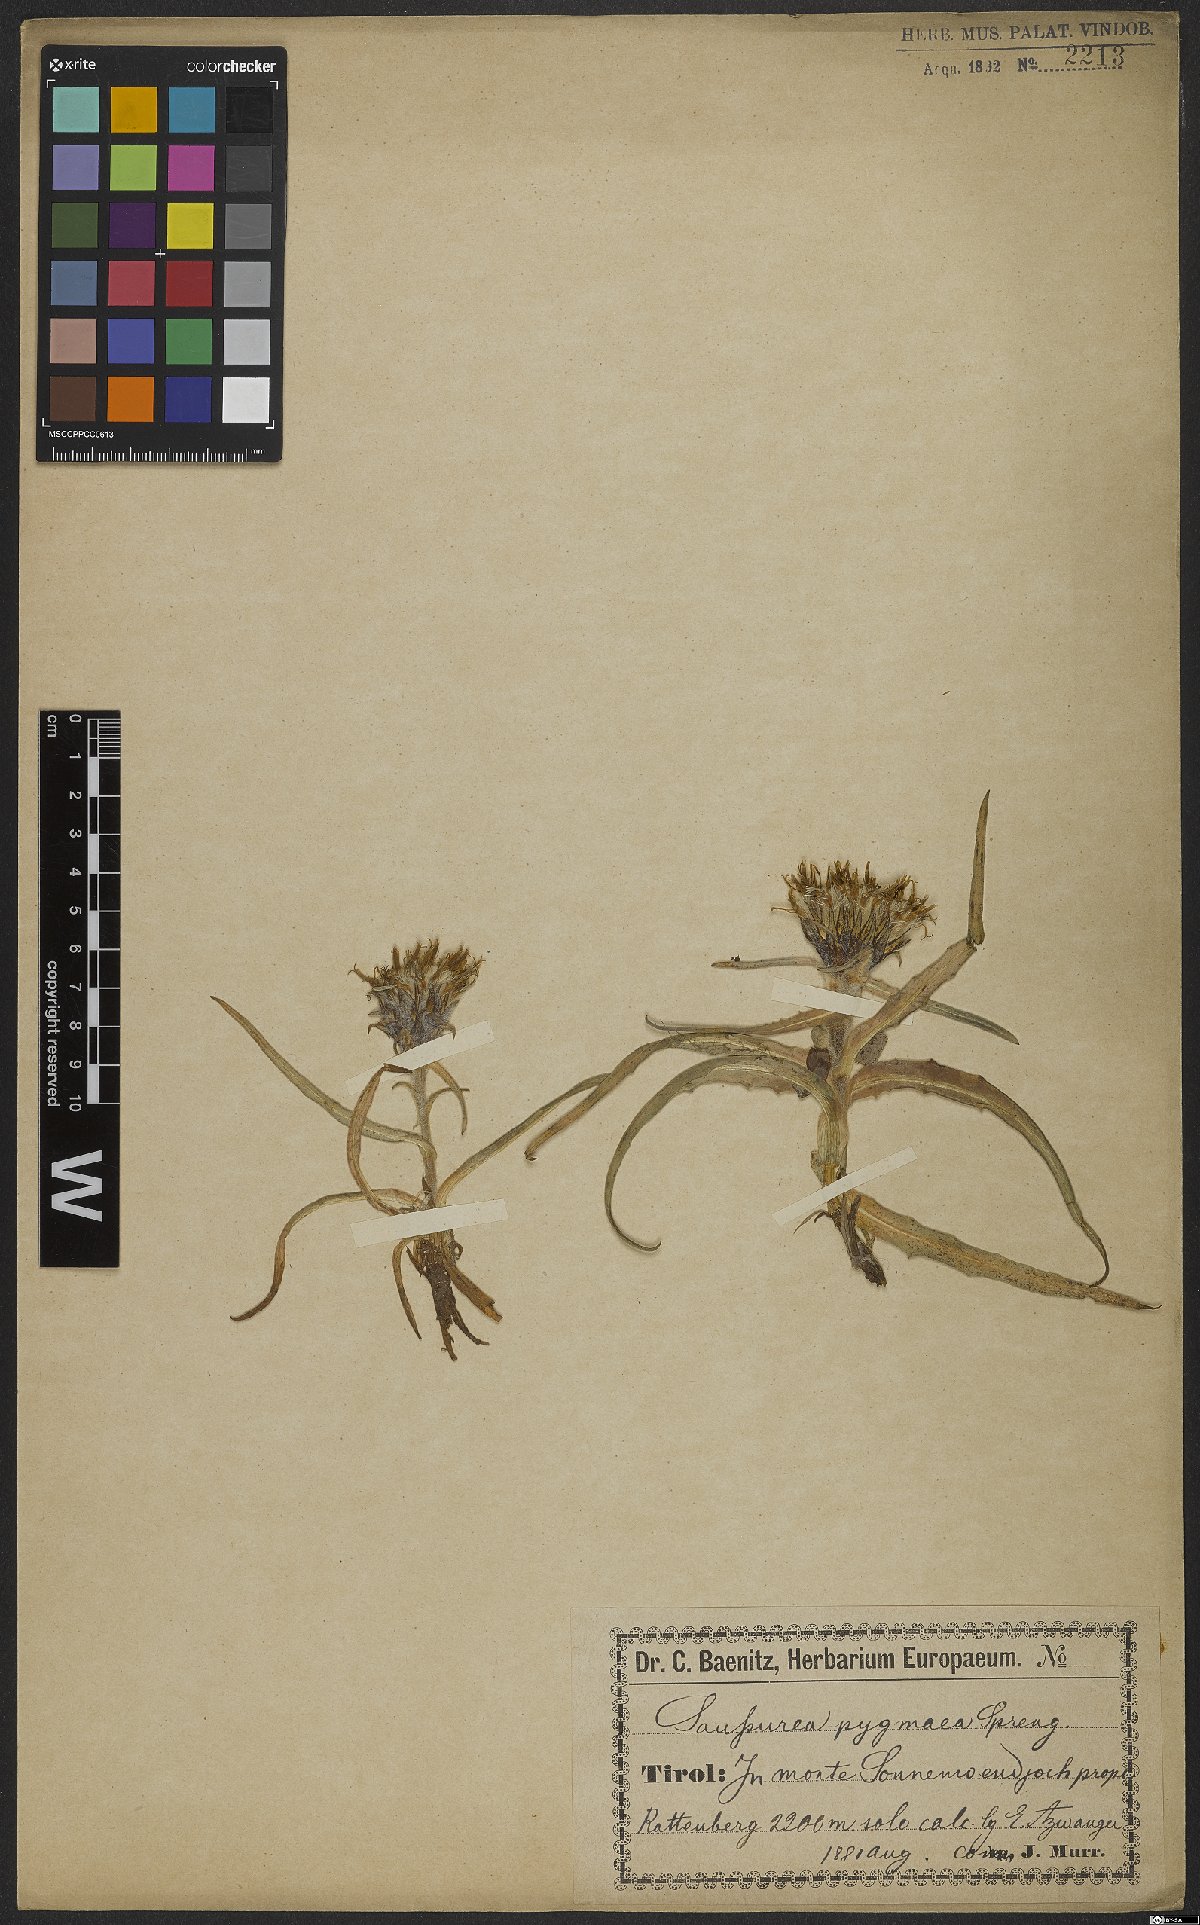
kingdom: Plantae
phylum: Tracheophyta
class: Magnoliopsida
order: Asterales
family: Asteraceae
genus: Saussurea
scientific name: Saussurea pygmaea
